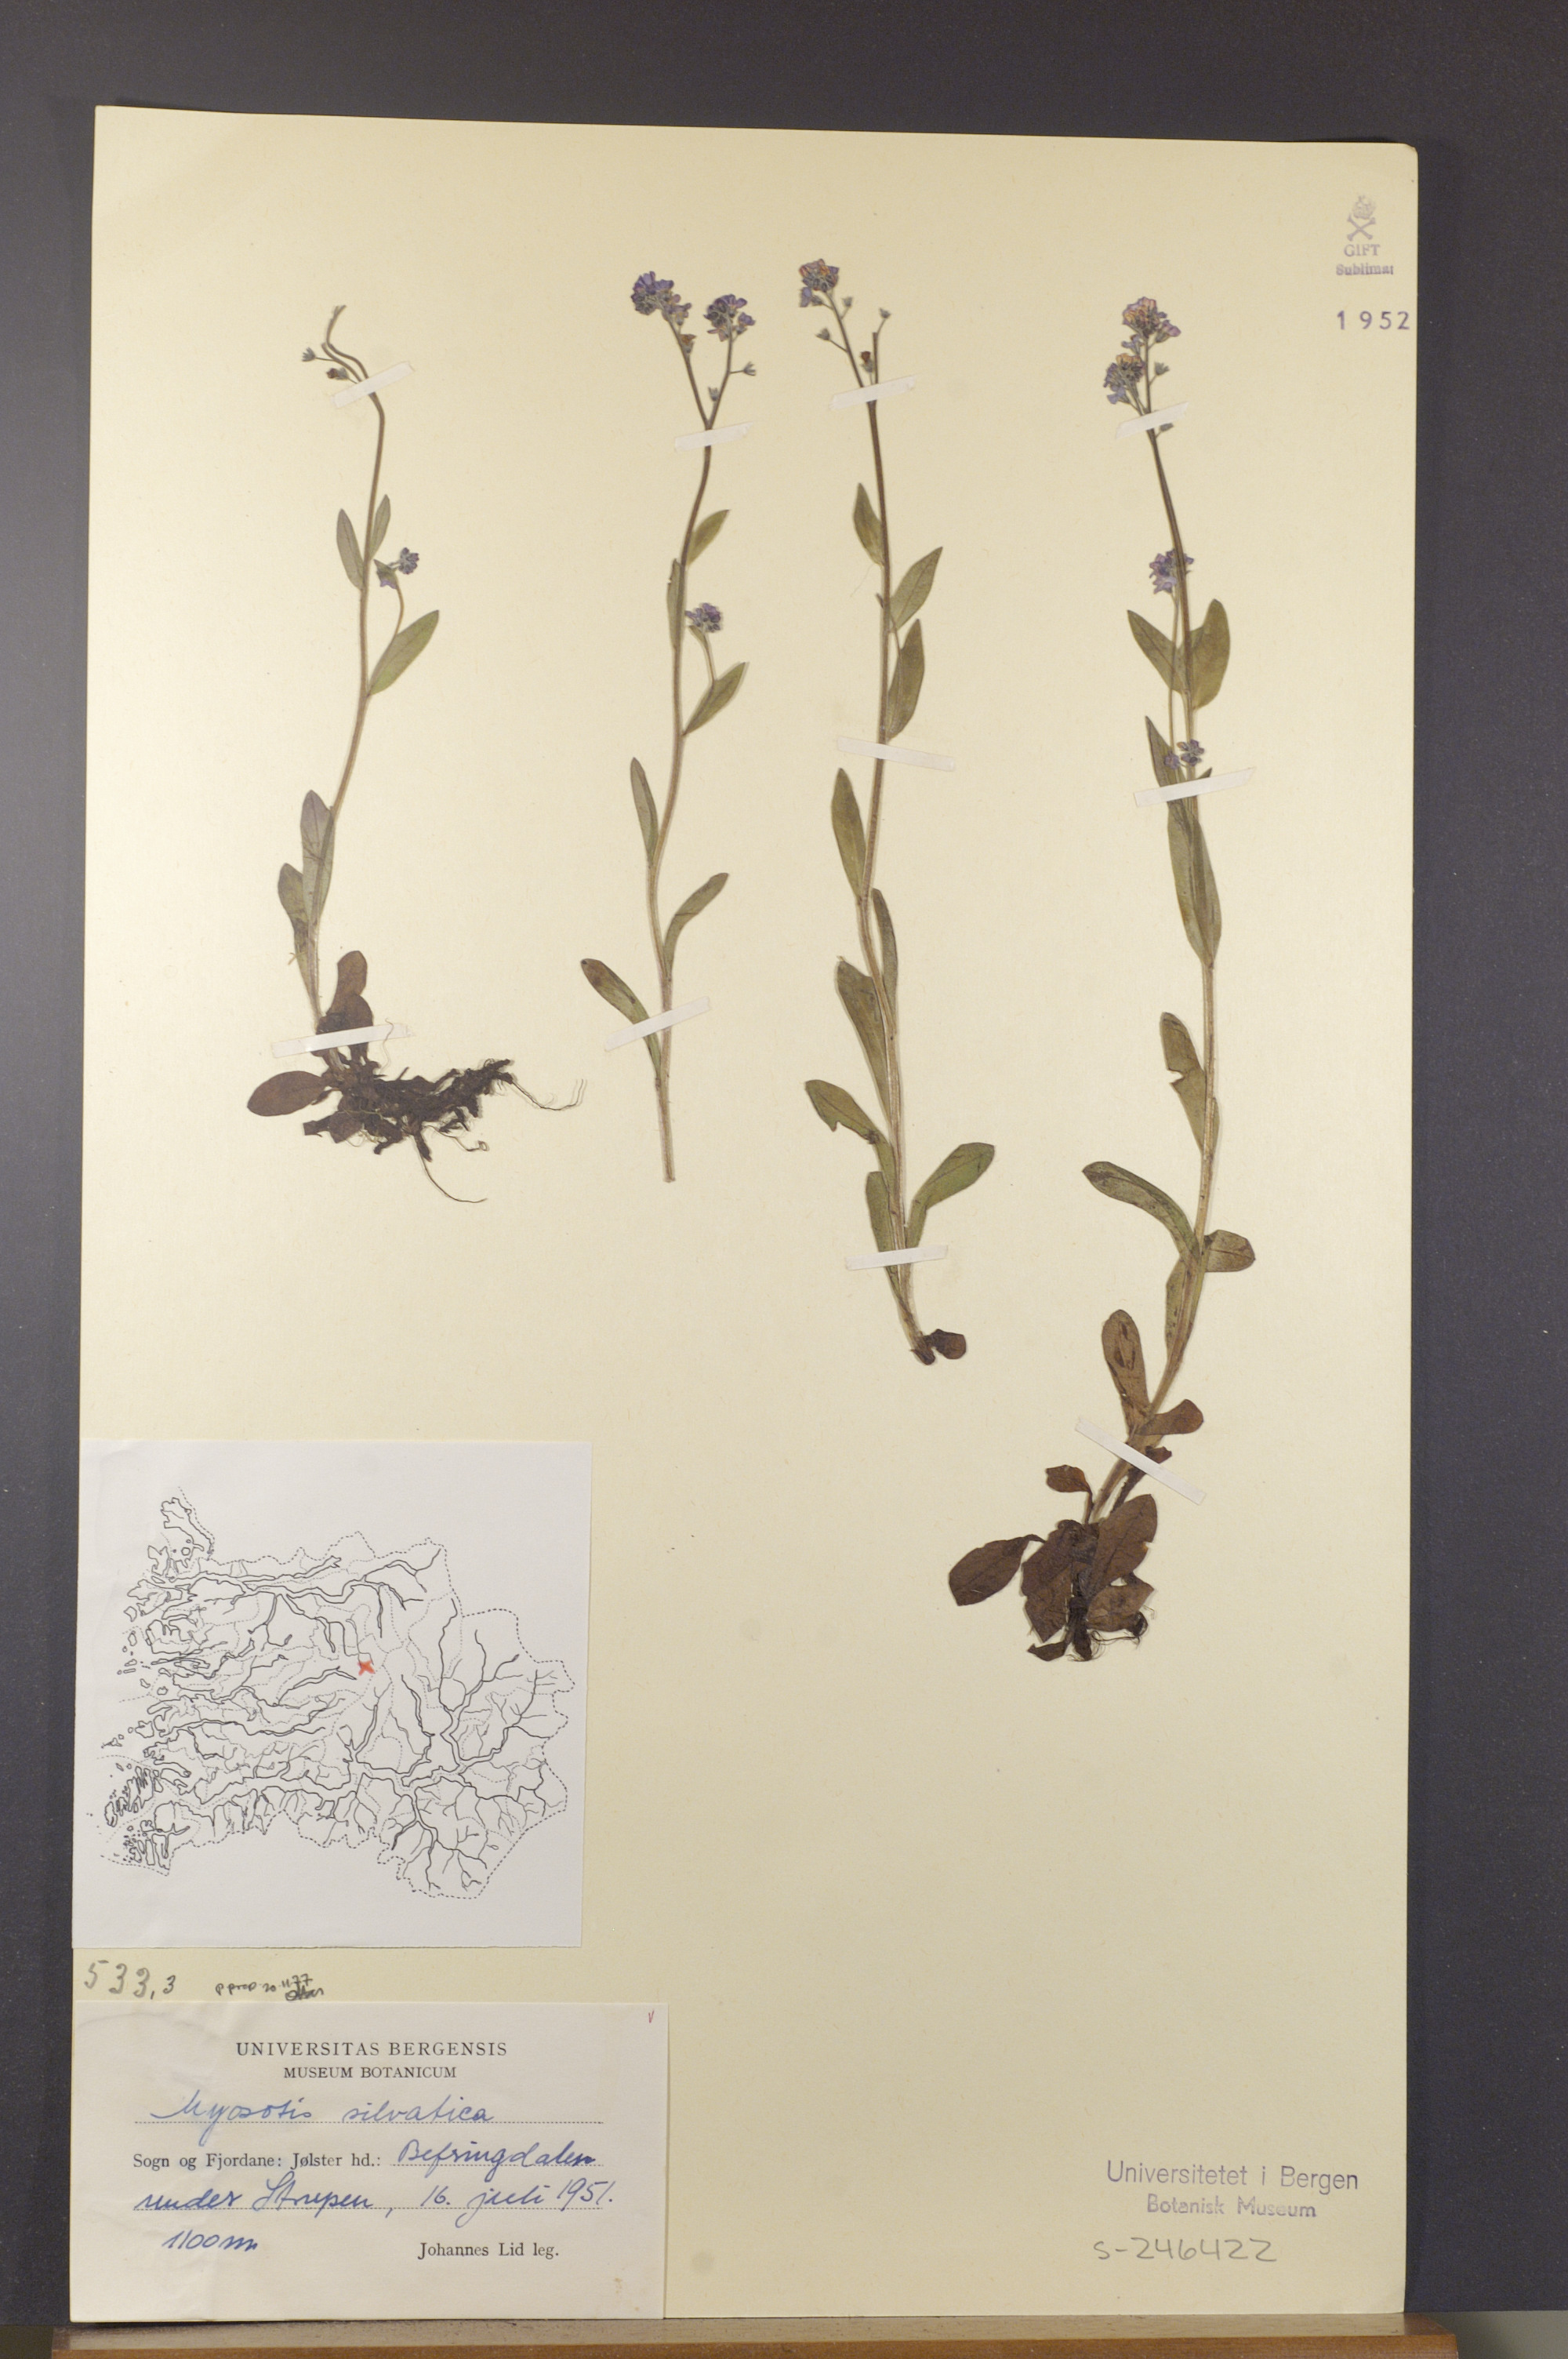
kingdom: Plantae
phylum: Tracheophyta
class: Magnoliopsida
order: Boraginales
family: Boraginaceae
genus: Myosotis
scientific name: Myosotis decumbens
